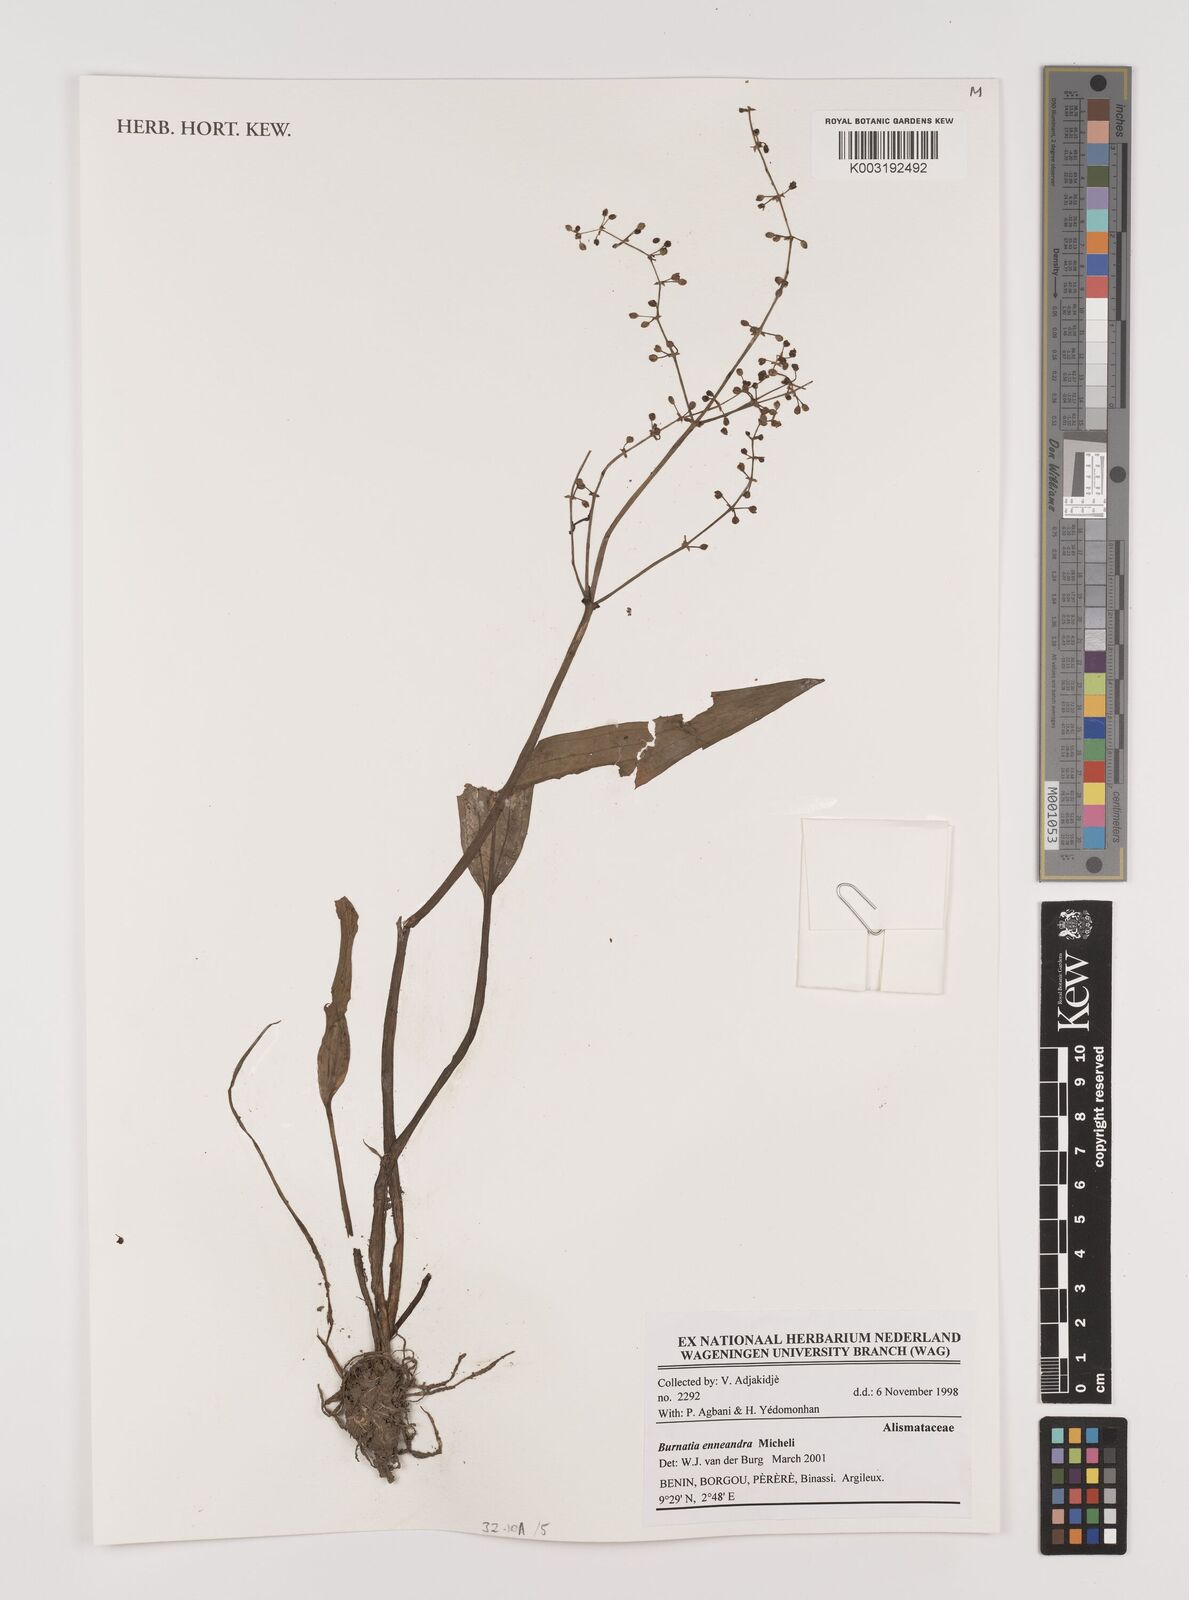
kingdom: Plantae
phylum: Tracheophyta
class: Liliopsida
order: Alismatales
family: Alismataceae
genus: Burnatia
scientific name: Burnatia enneandra
